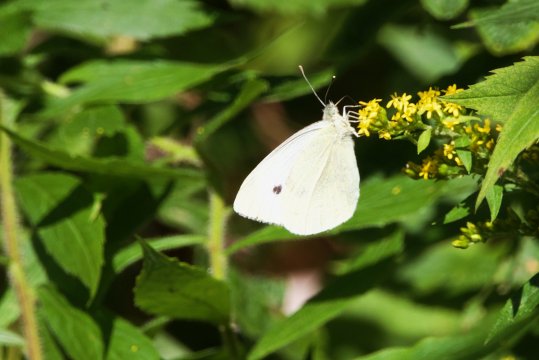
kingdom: Animalia
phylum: Arthropoda
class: Insecta
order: Lepidoptera
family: Pieridae
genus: Pieris
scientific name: Pieris rapae
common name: Cabbage White
